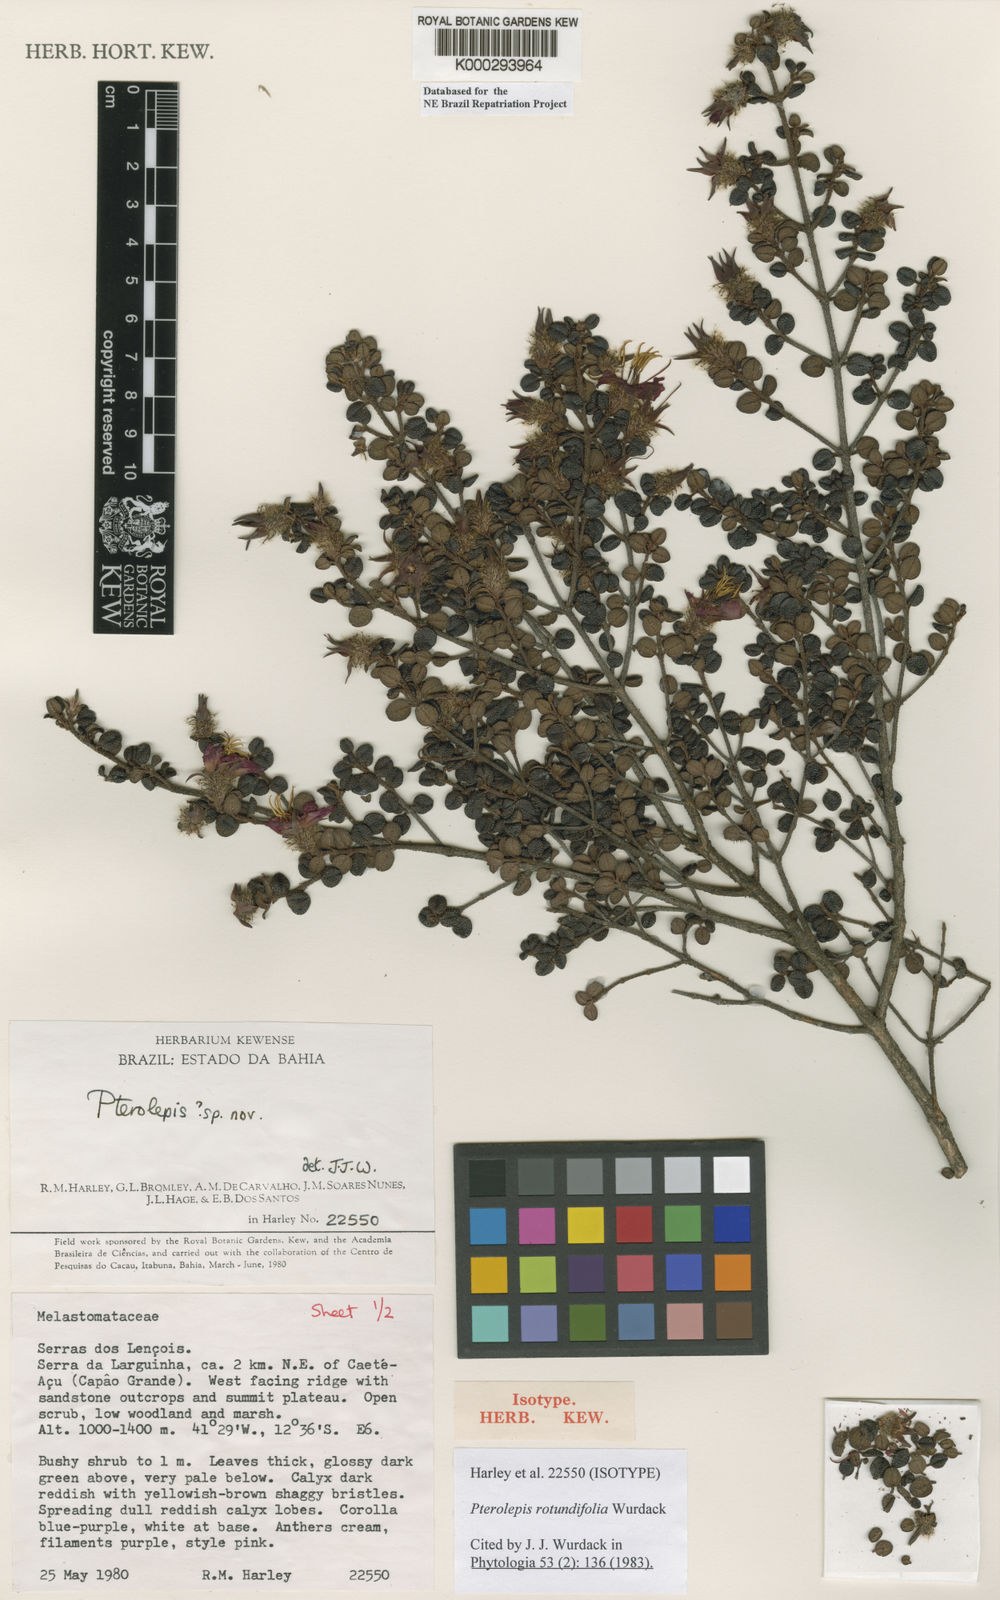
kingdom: Plantae
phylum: Tracheophyta
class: Magnoliopsida
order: Myrtales
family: Melastomataceae
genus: Pterolepis
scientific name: Pterolepis rotundifolia
